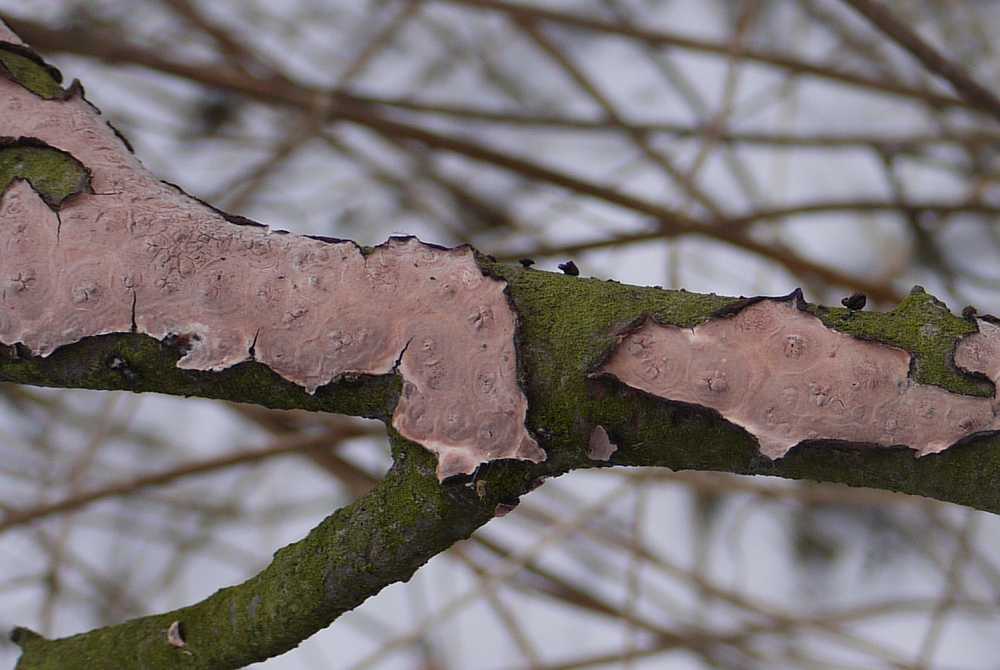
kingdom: Fungi
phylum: Basidiomycota
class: Agaricomycetes
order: Russulales
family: Peniophoraceae
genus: Peniophora
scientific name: Peniophora quercina
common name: ege-voksskind
